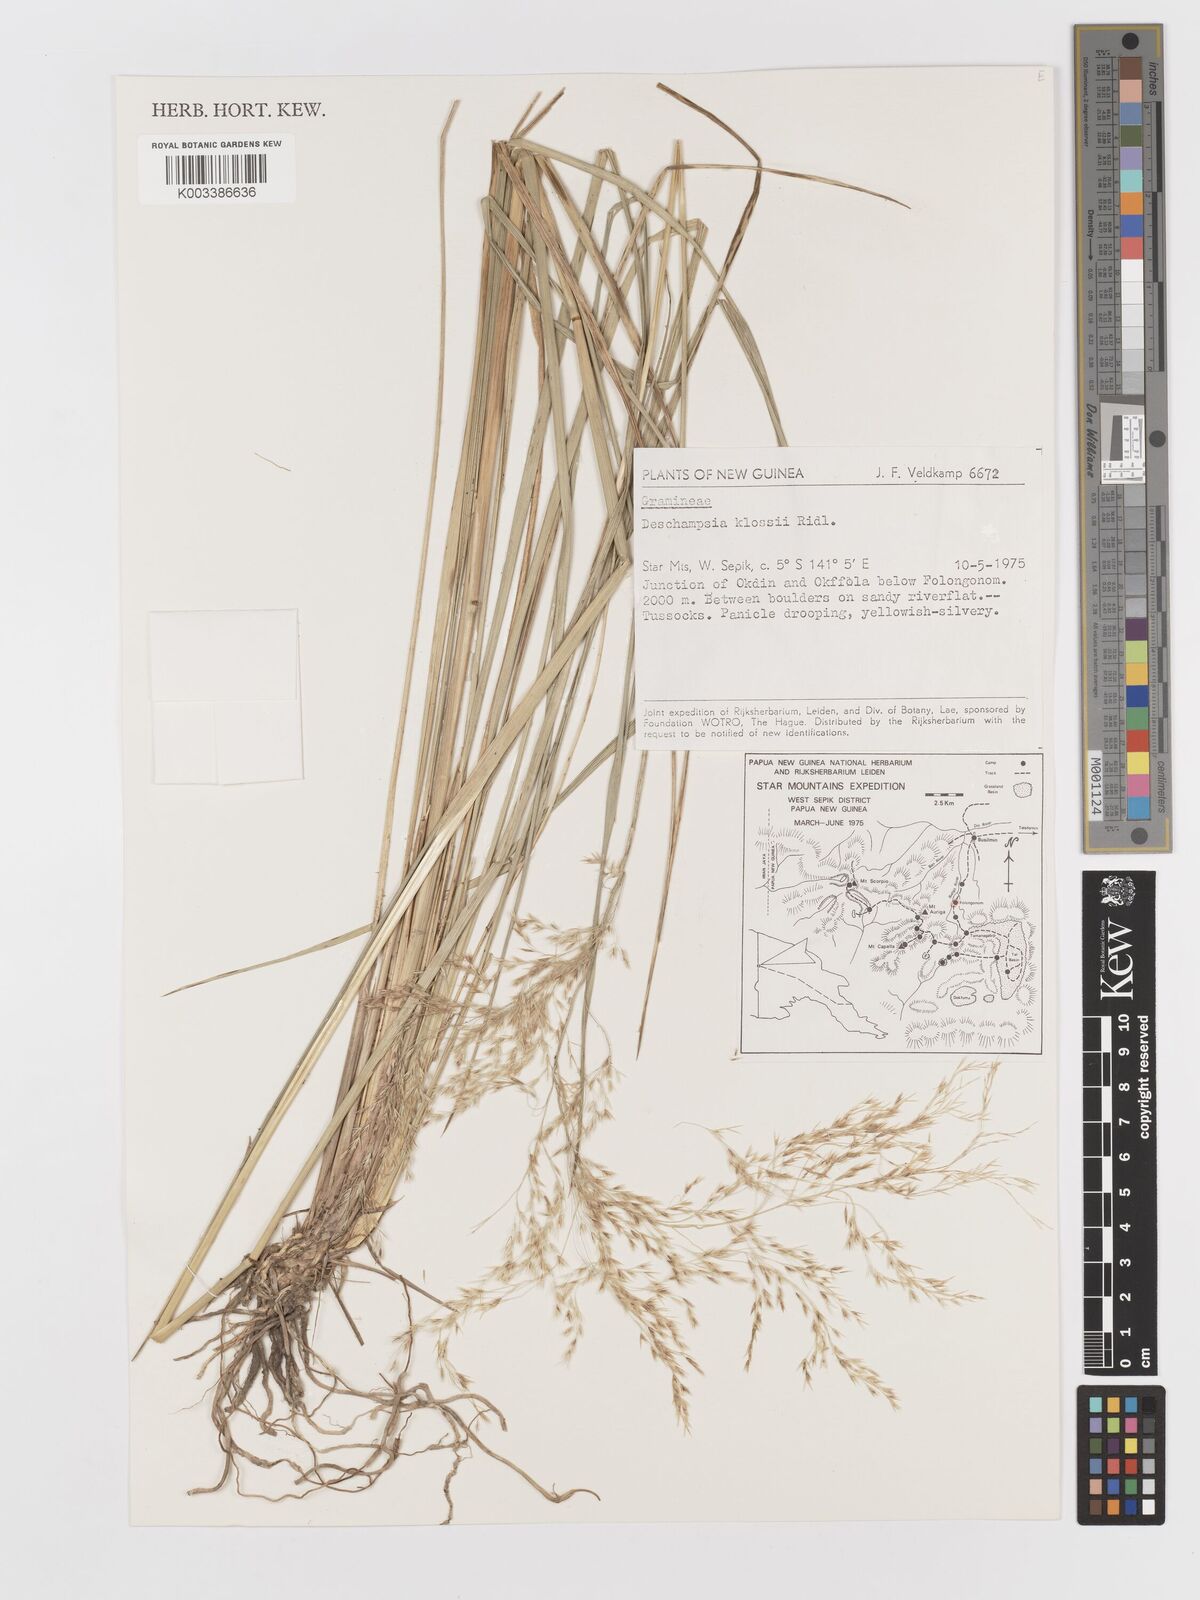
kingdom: Plantae
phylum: Tracheophyta
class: Liliopsida
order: Poales
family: Poaceae
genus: Deschampsia
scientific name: Deschampsia klossii
